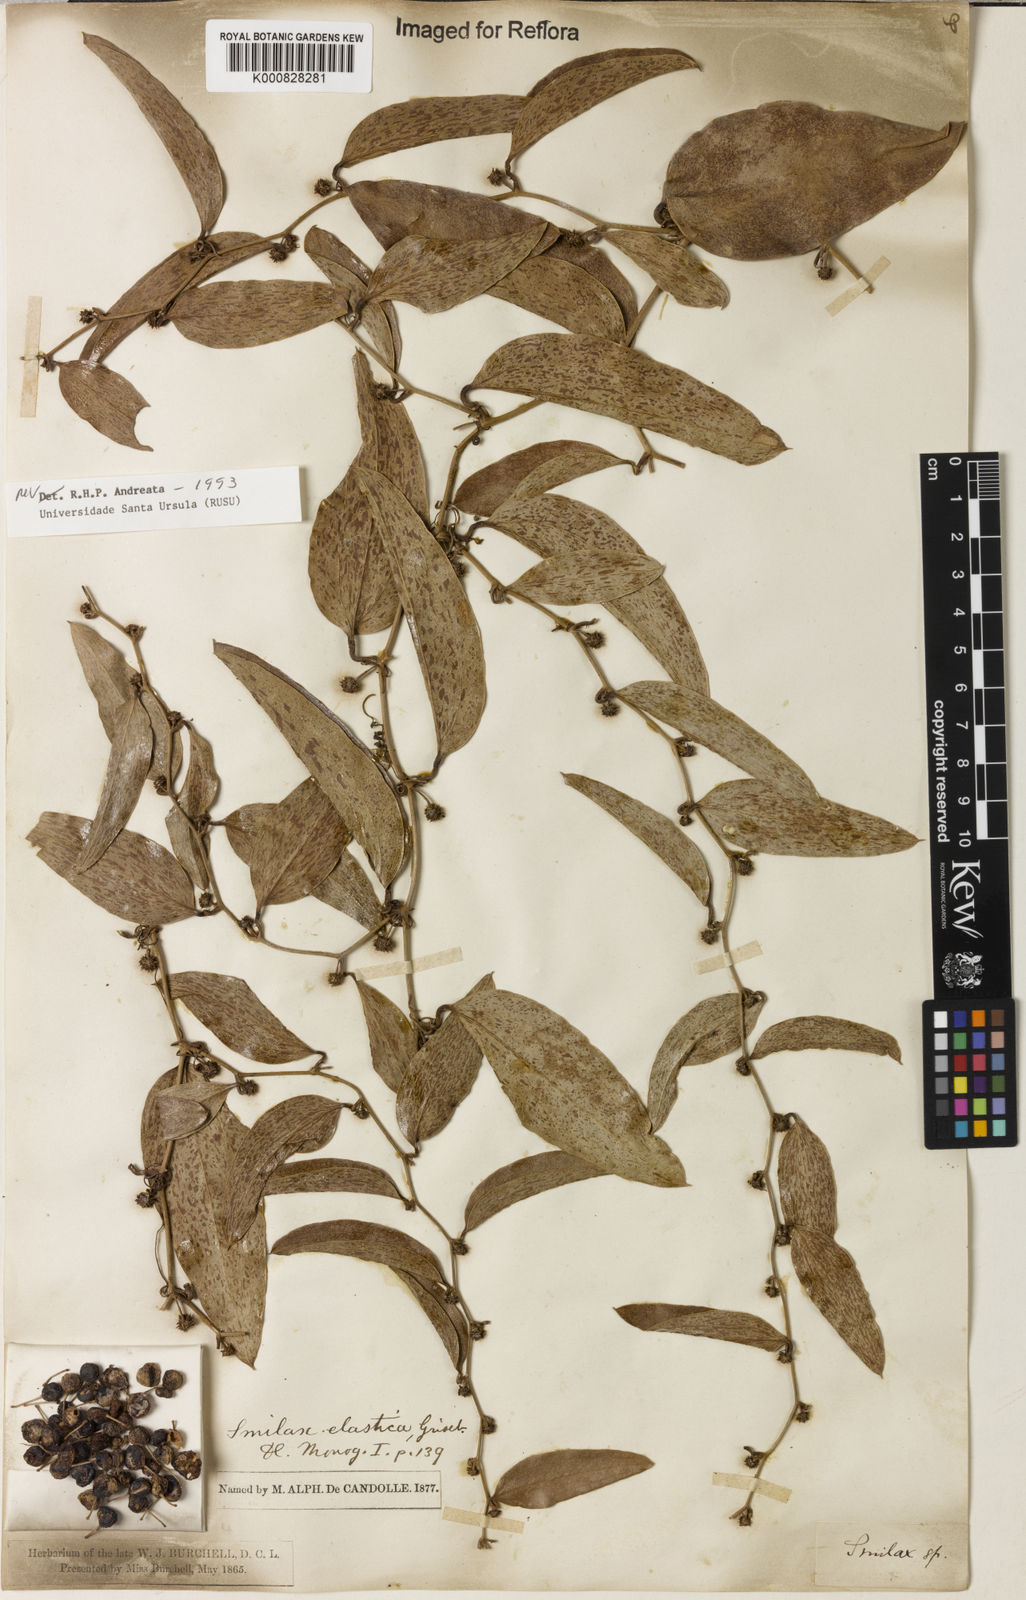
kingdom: Plantae
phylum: Tracheophyta
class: Liliopsida
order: Liliales
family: Smilacaceae
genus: Smilax
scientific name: Smilax elastica
